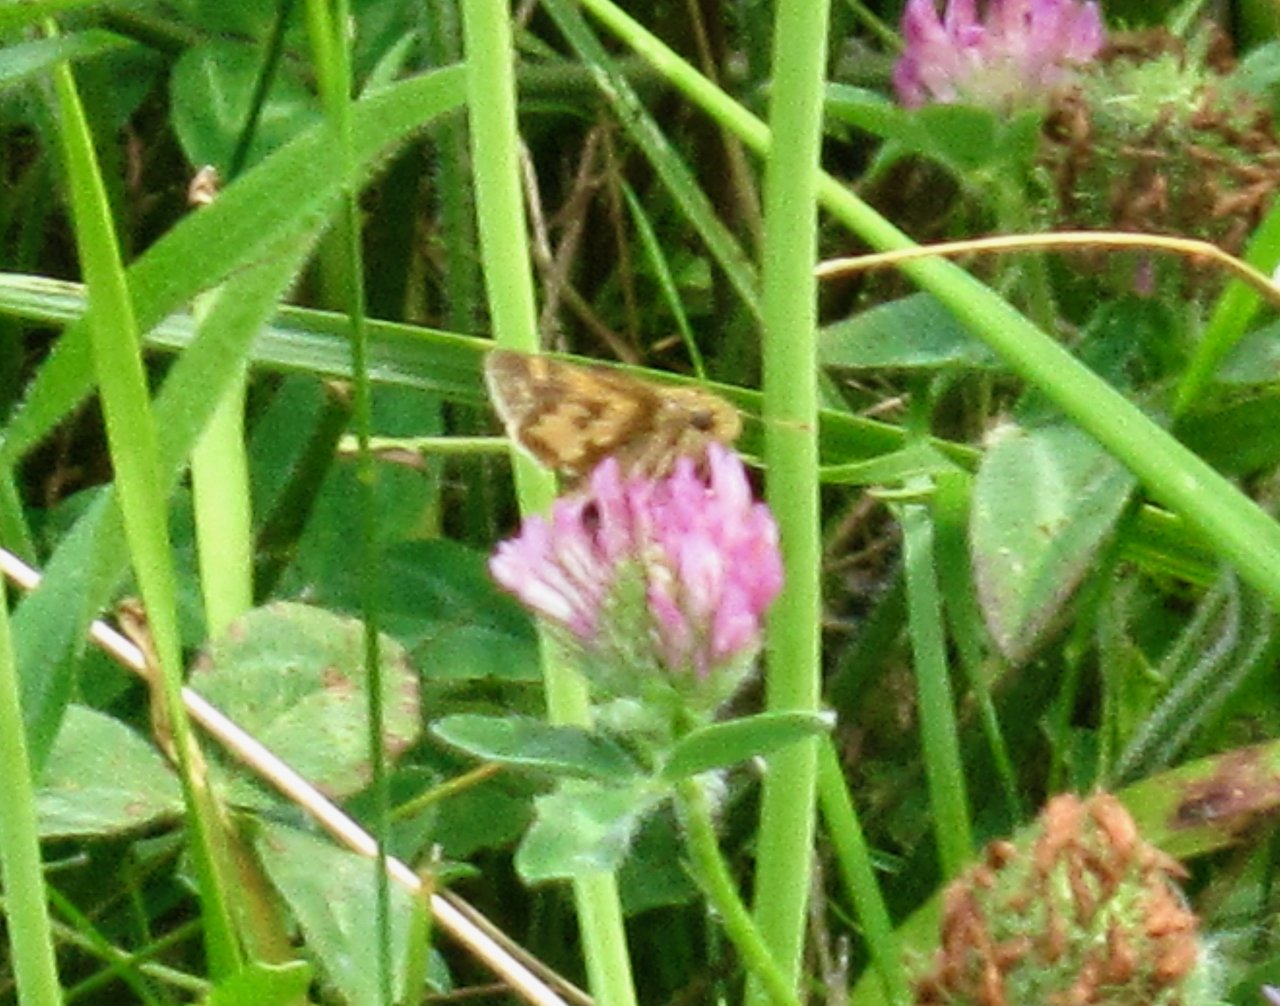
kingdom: Animalia
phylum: Arthropoda
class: Insecta
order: Lepidoptera
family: Hesperiidae
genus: Polites
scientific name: Polites coras
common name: Peck's Skipper
